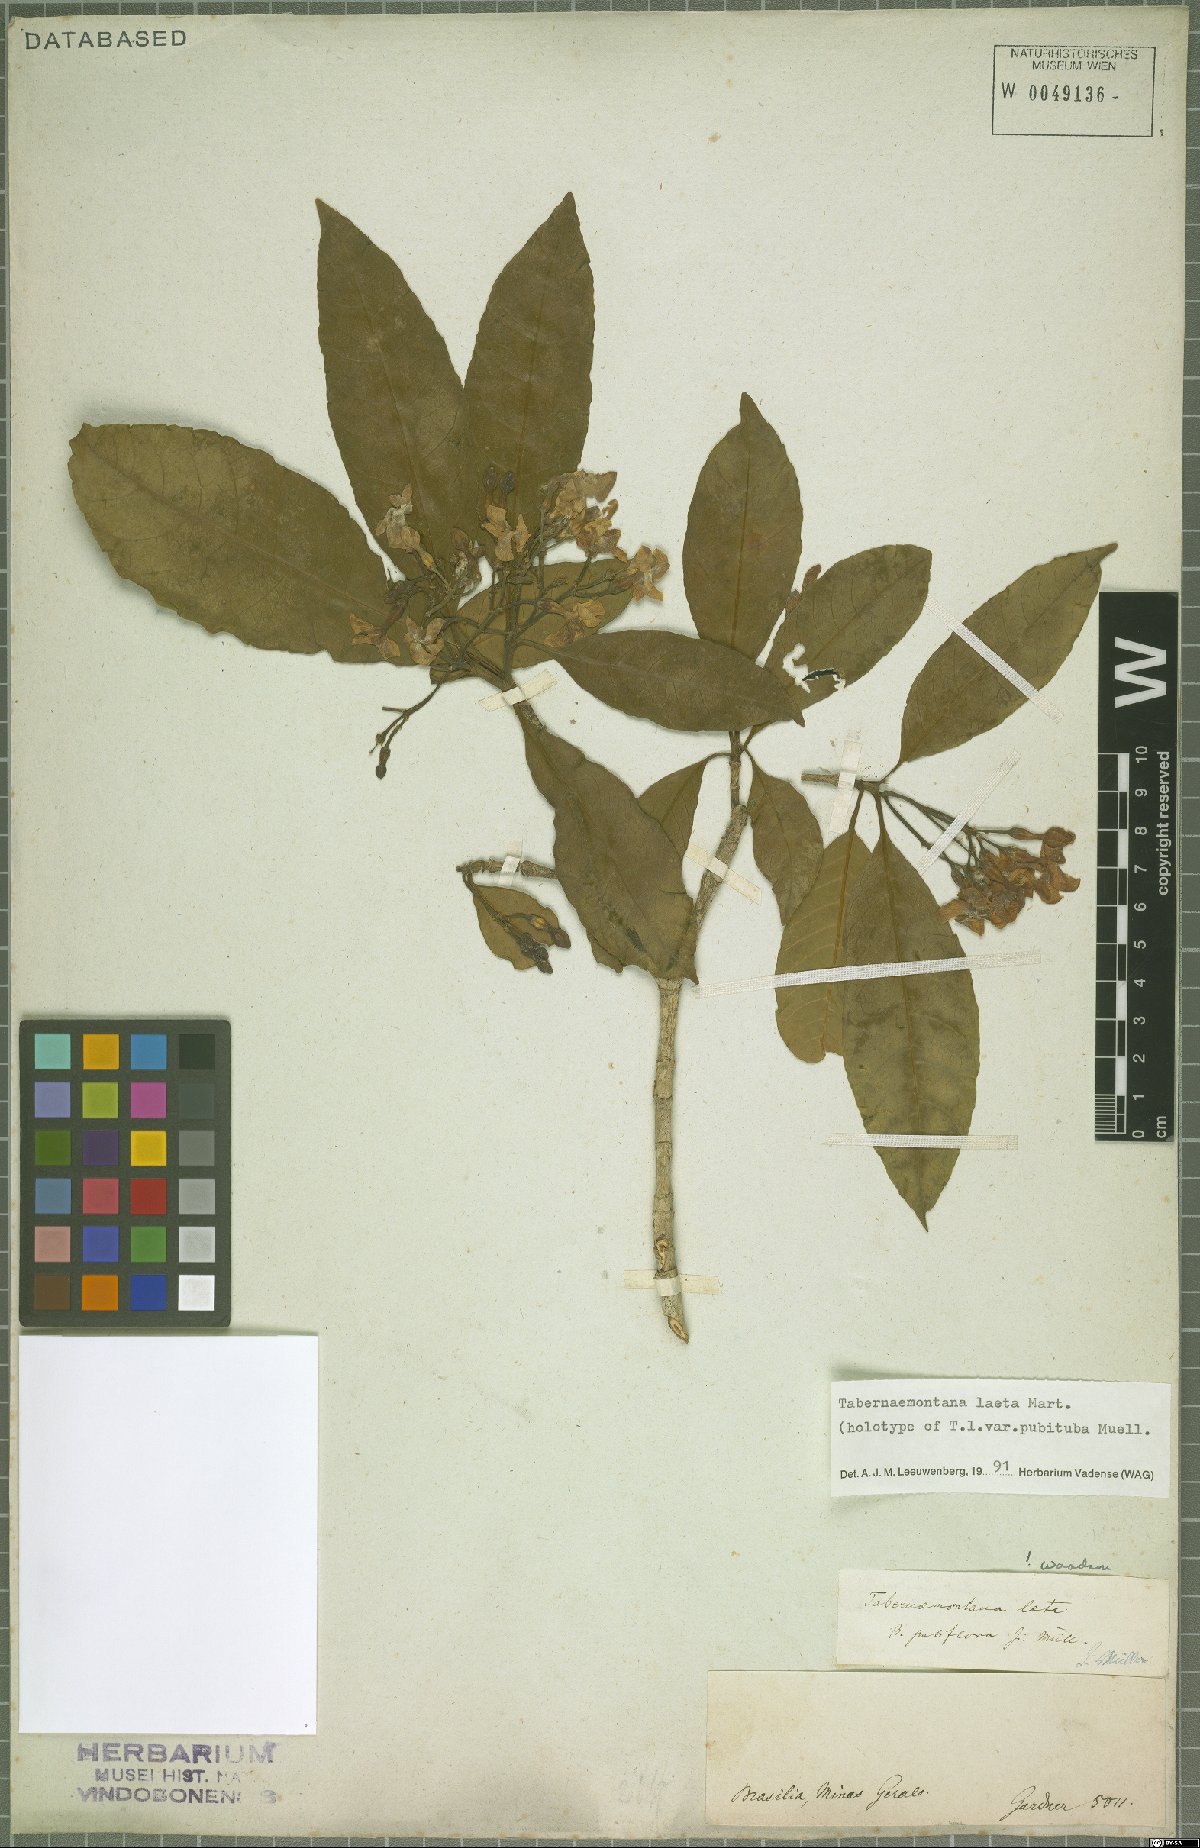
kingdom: Plantae
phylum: Tracheophyta
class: Magnoliopsida
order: Gentianales
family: Apocynaceae
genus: Tabernaemontana
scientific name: Tabernaemontana laeta
